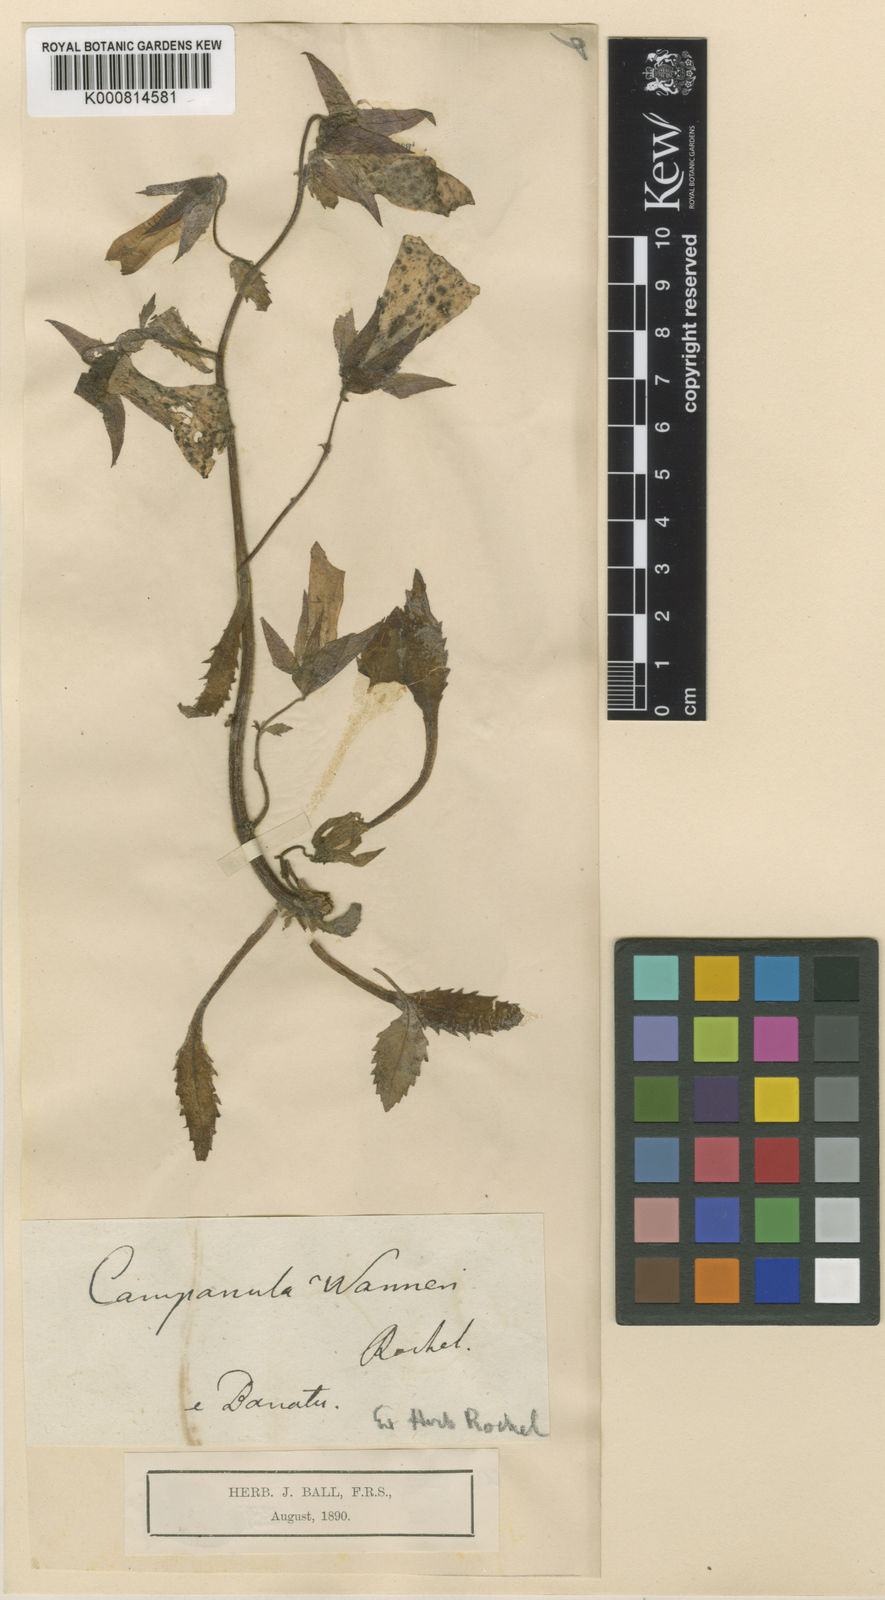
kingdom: Plantae
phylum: Tracheophyta
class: Magnoliopsida
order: Asterales
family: Campanulaceae
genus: Campanula
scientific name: Campanula wanneri
